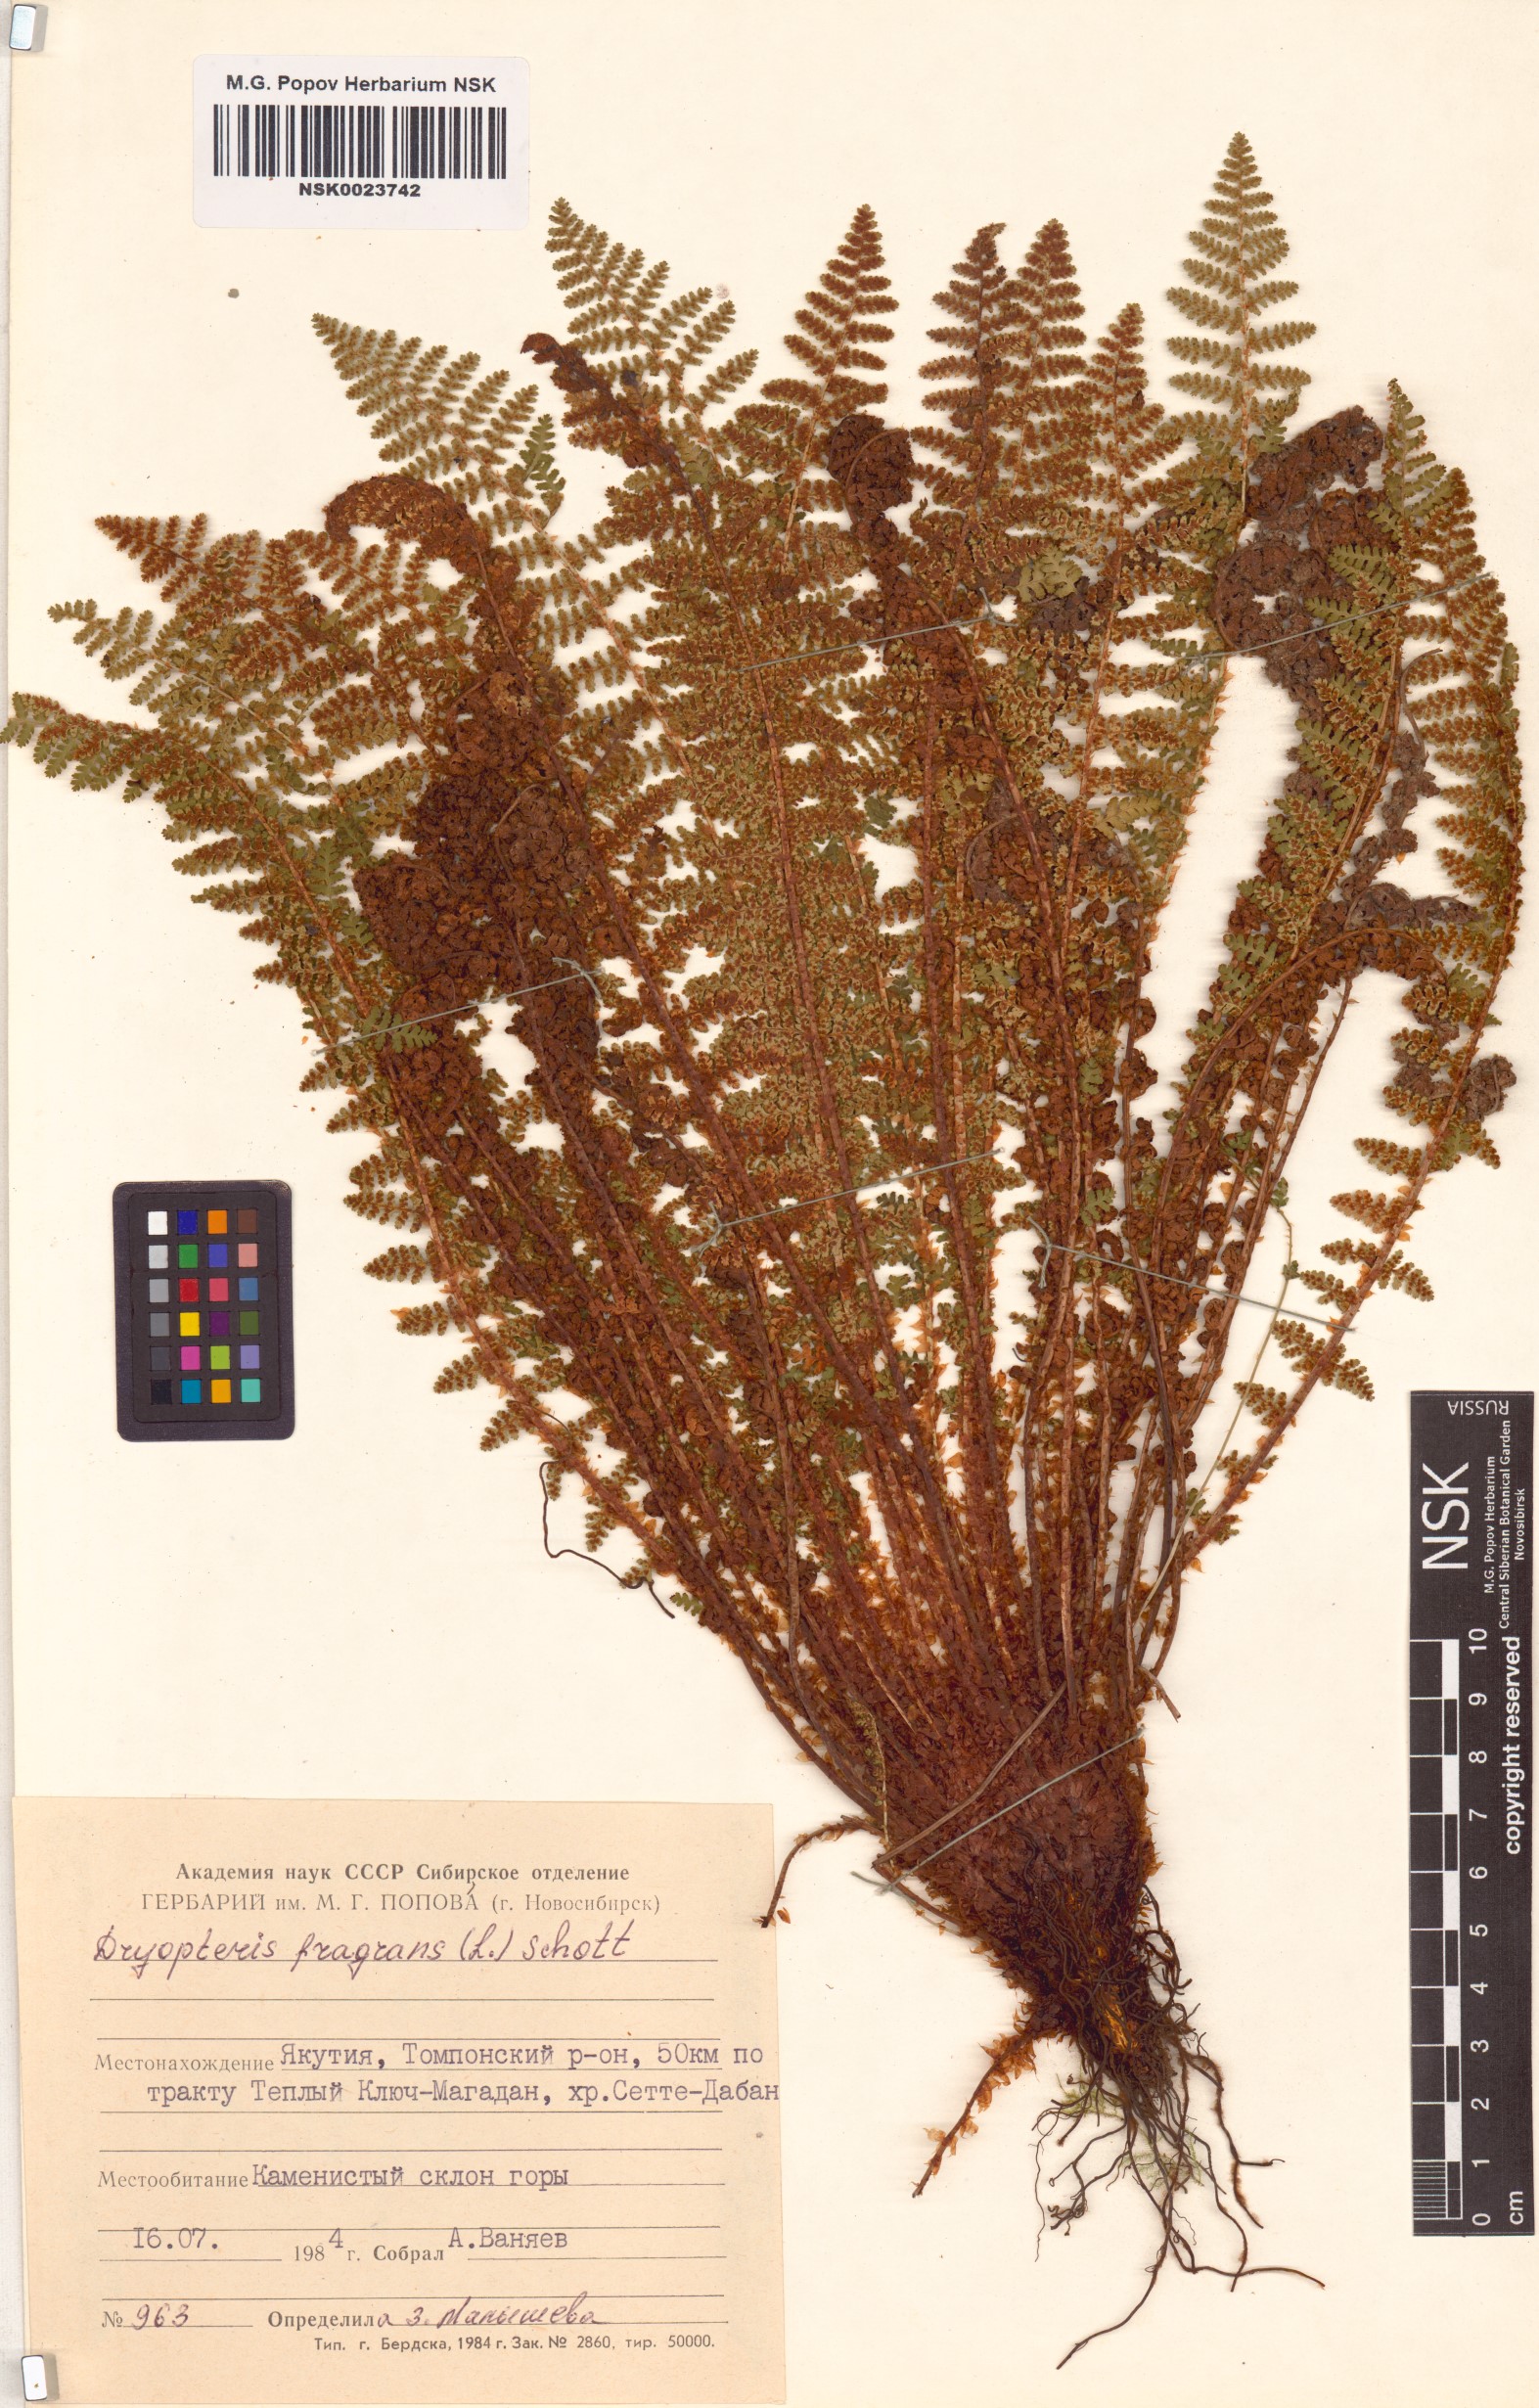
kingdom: Plantae
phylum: Tracheophyta
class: Polypodiopsida
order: Polypodiales
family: Dryopteridaceae
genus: Dryopteris
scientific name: Dryopteris fragrans
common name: Fragrant wood fern
